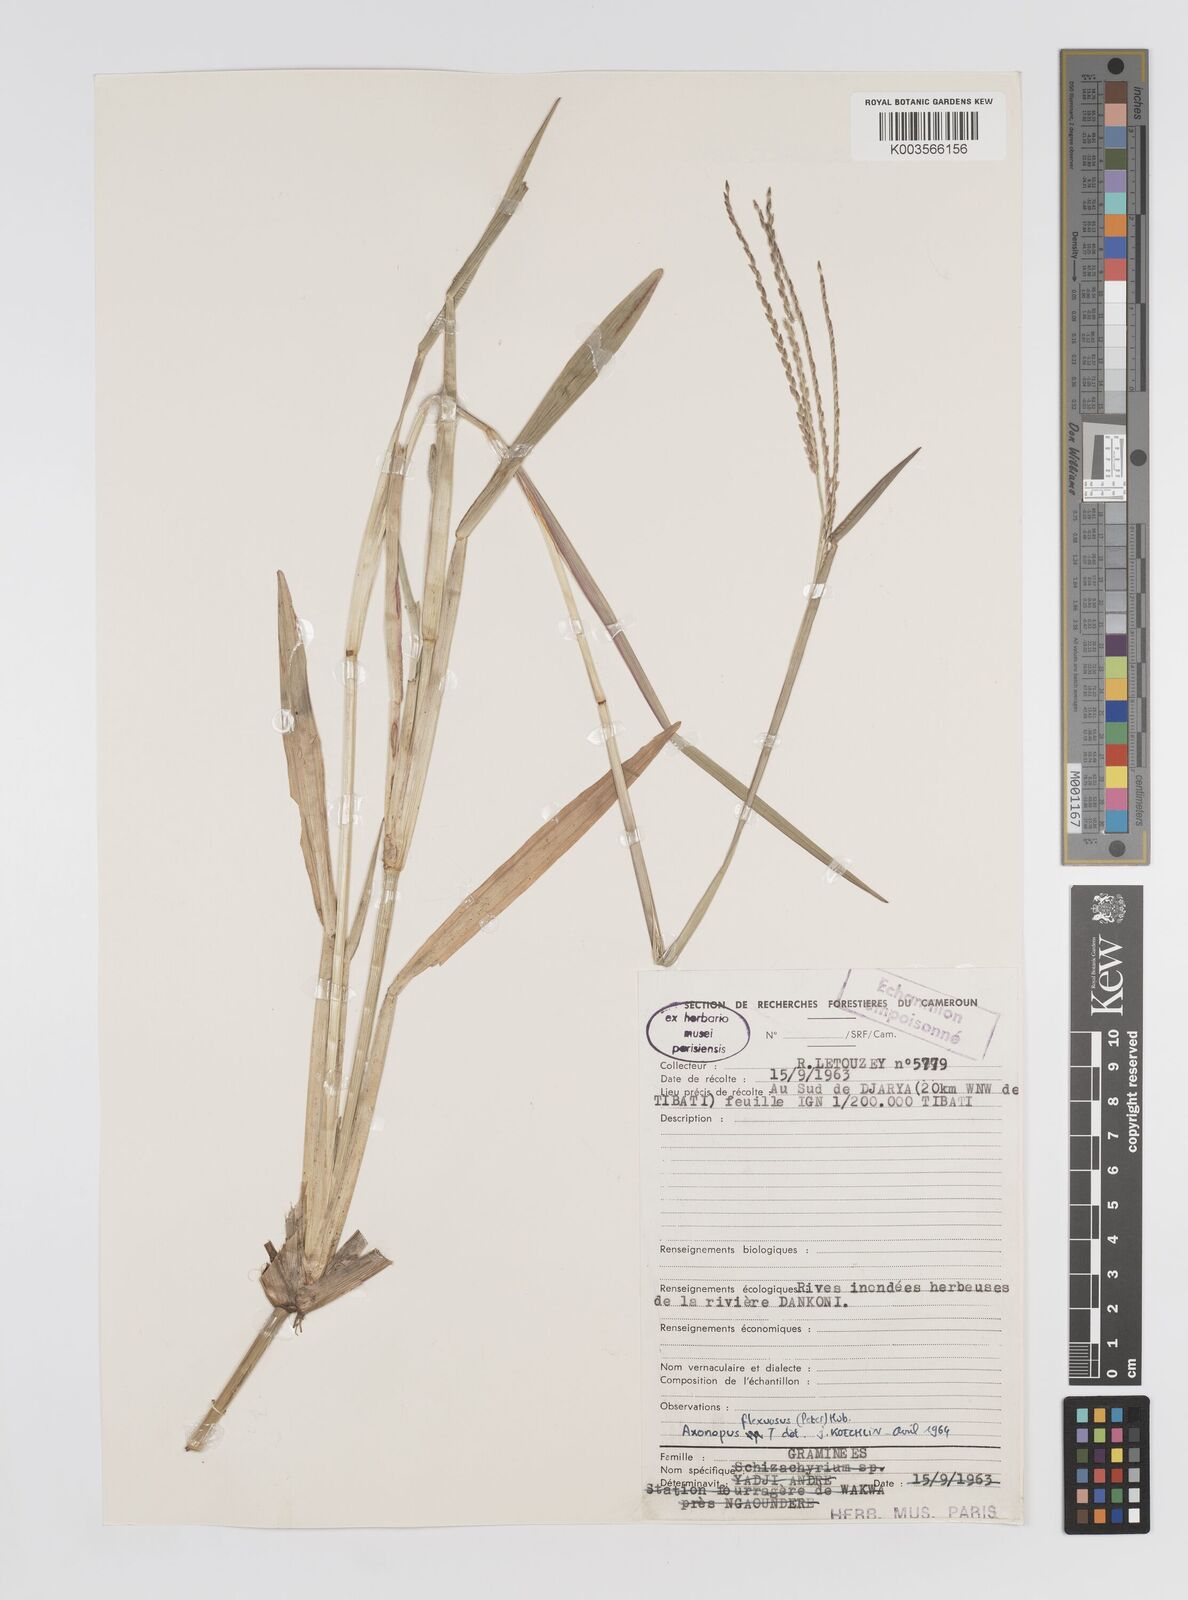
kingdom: Plantae
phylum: Tracheophyta
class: Liliopsida
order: Poales
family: Poaceae
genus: Axonopus
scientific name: Axonopus flexuosus
